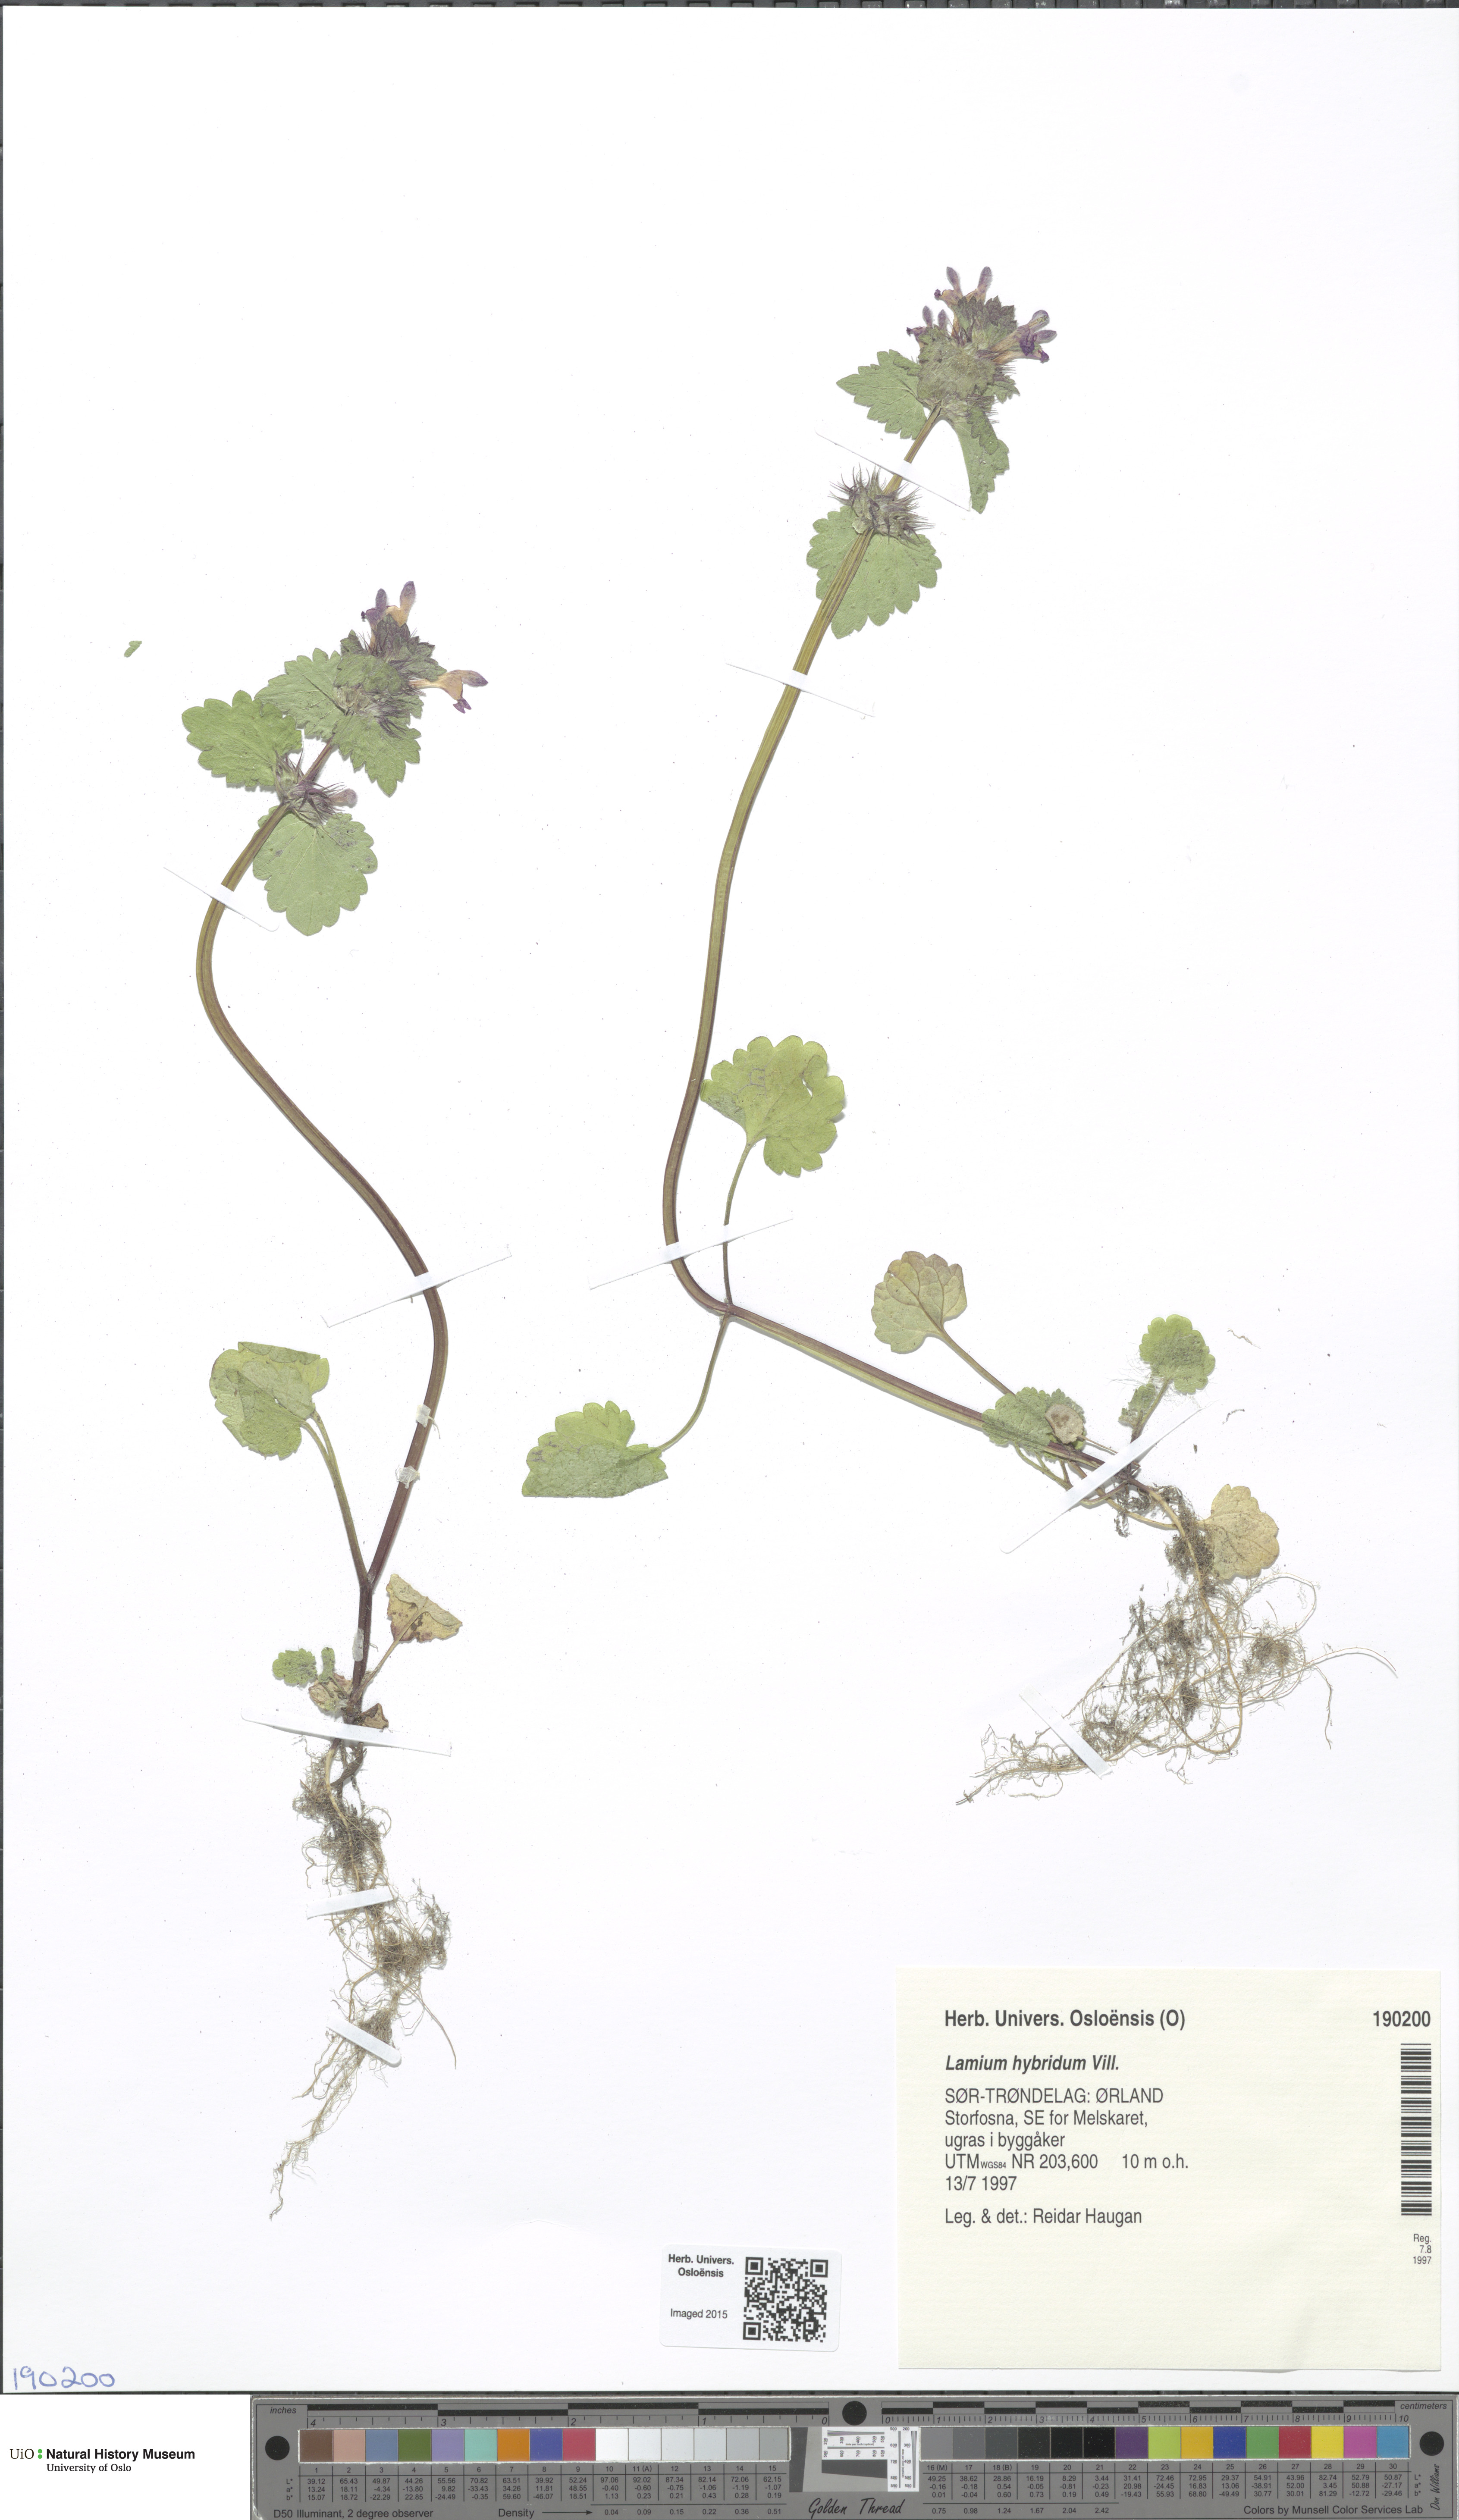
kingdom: Plantae
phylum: Tracheophyta
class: Magnoliopsida
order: Lamiales
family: Lamiaceae
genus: Lamium
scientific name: Lamium hybridum
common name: Cut-leaved dead-nettle
